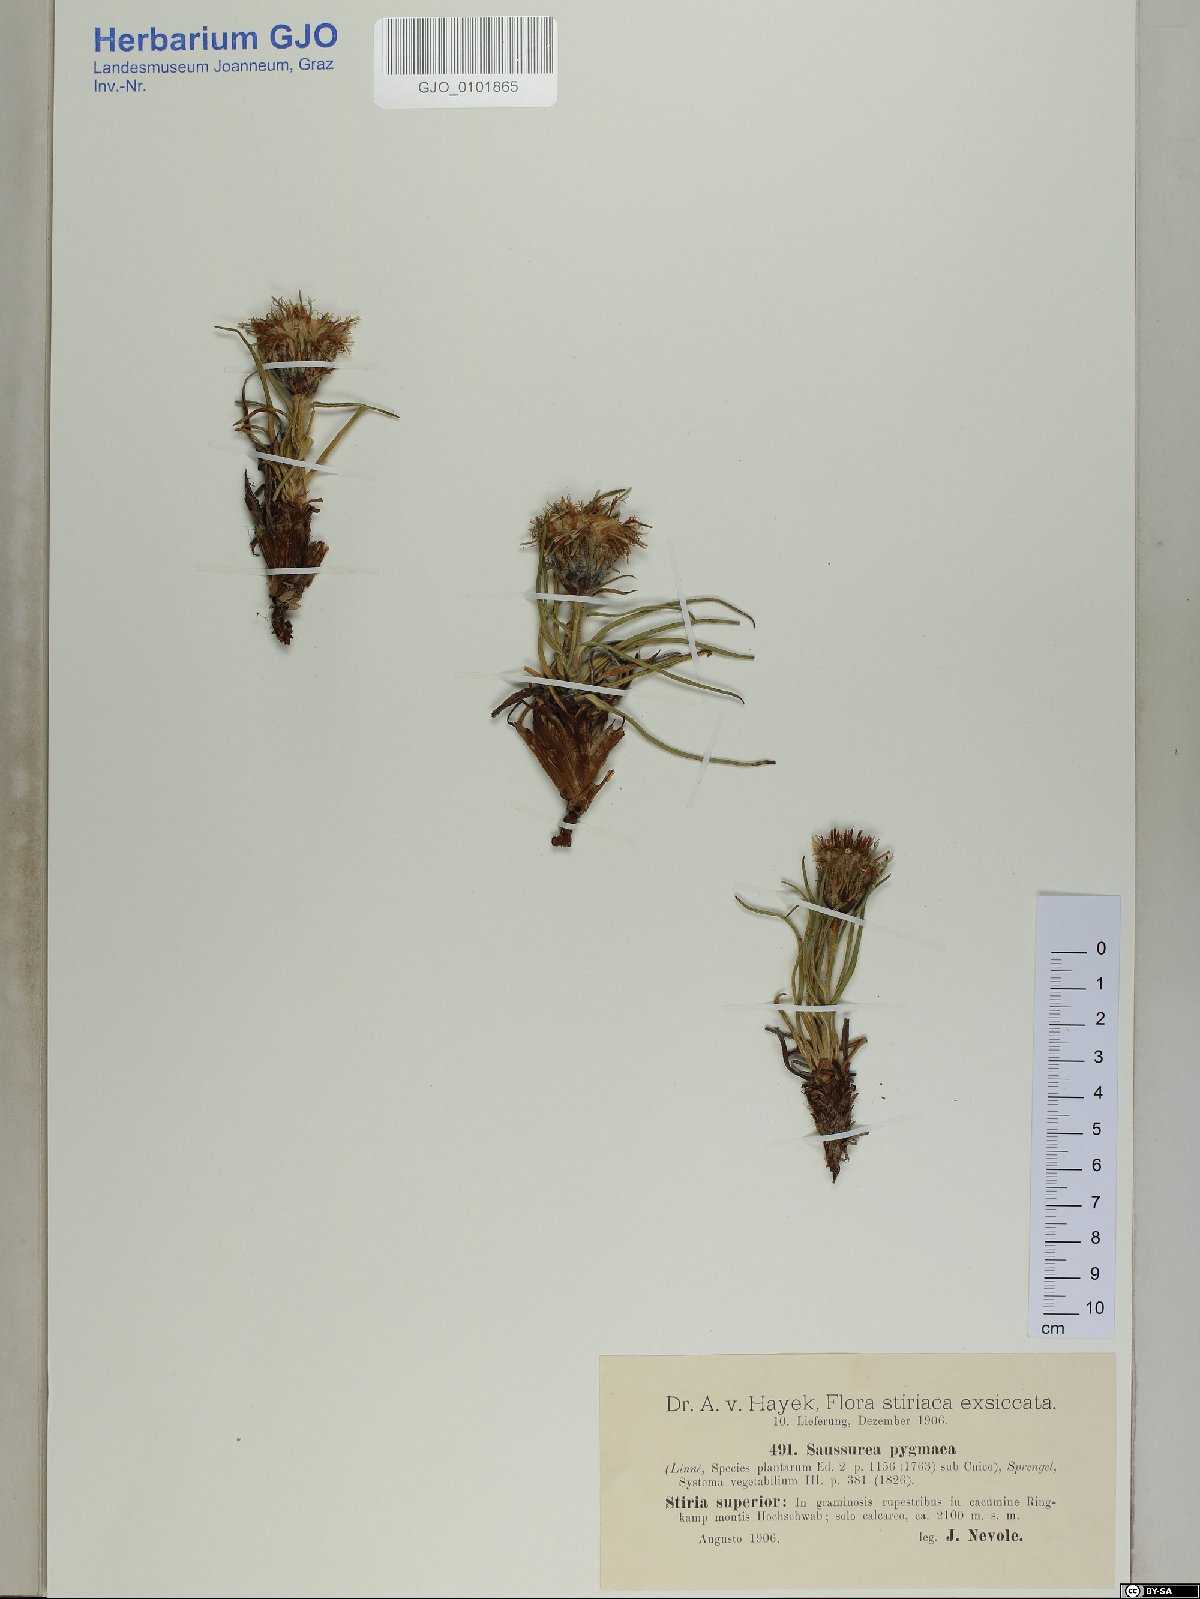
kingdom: Plantae
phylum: Tracheophyta
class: Magnoliopsida
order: Asterales
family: Asteraceae
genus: Saussurea
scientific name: Saussurea pygmaea
